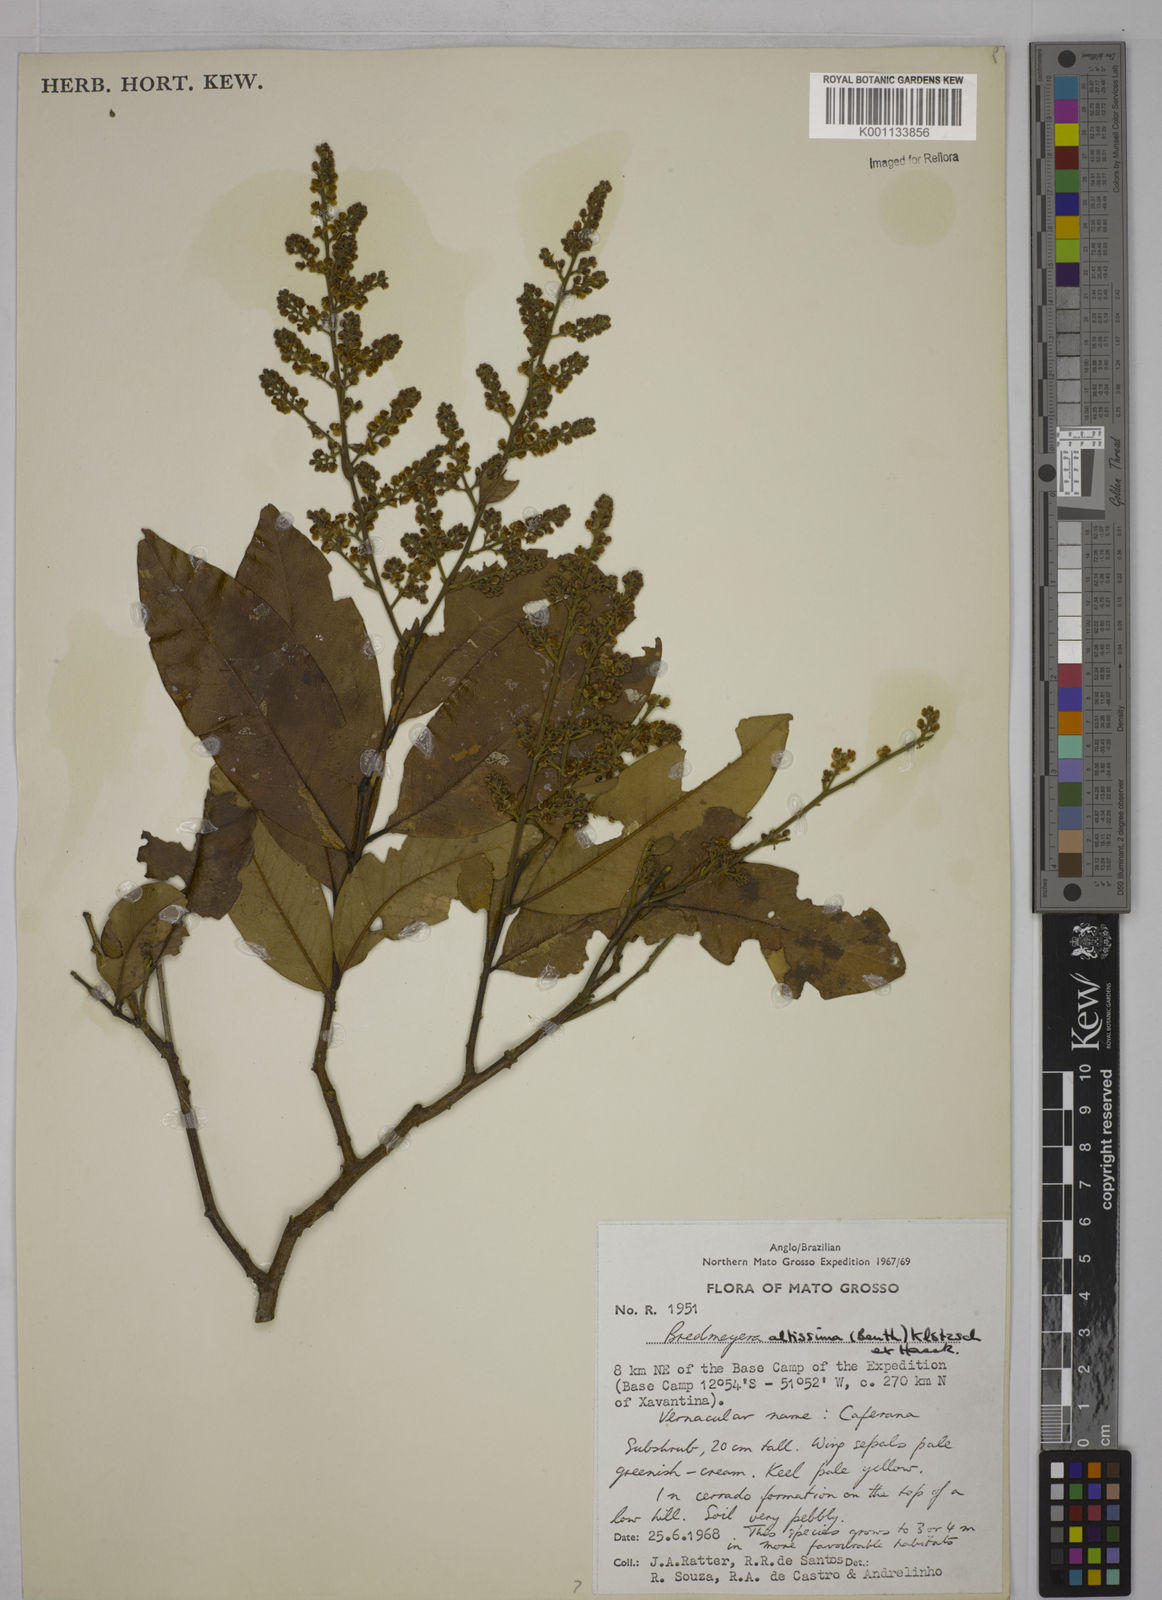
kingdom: Plantae
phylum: Tracheophyta
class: Magnoliopsida
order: Fabales
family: Polygalaceae
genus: Bredemeyera
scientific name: Bredemeyera divaricata
